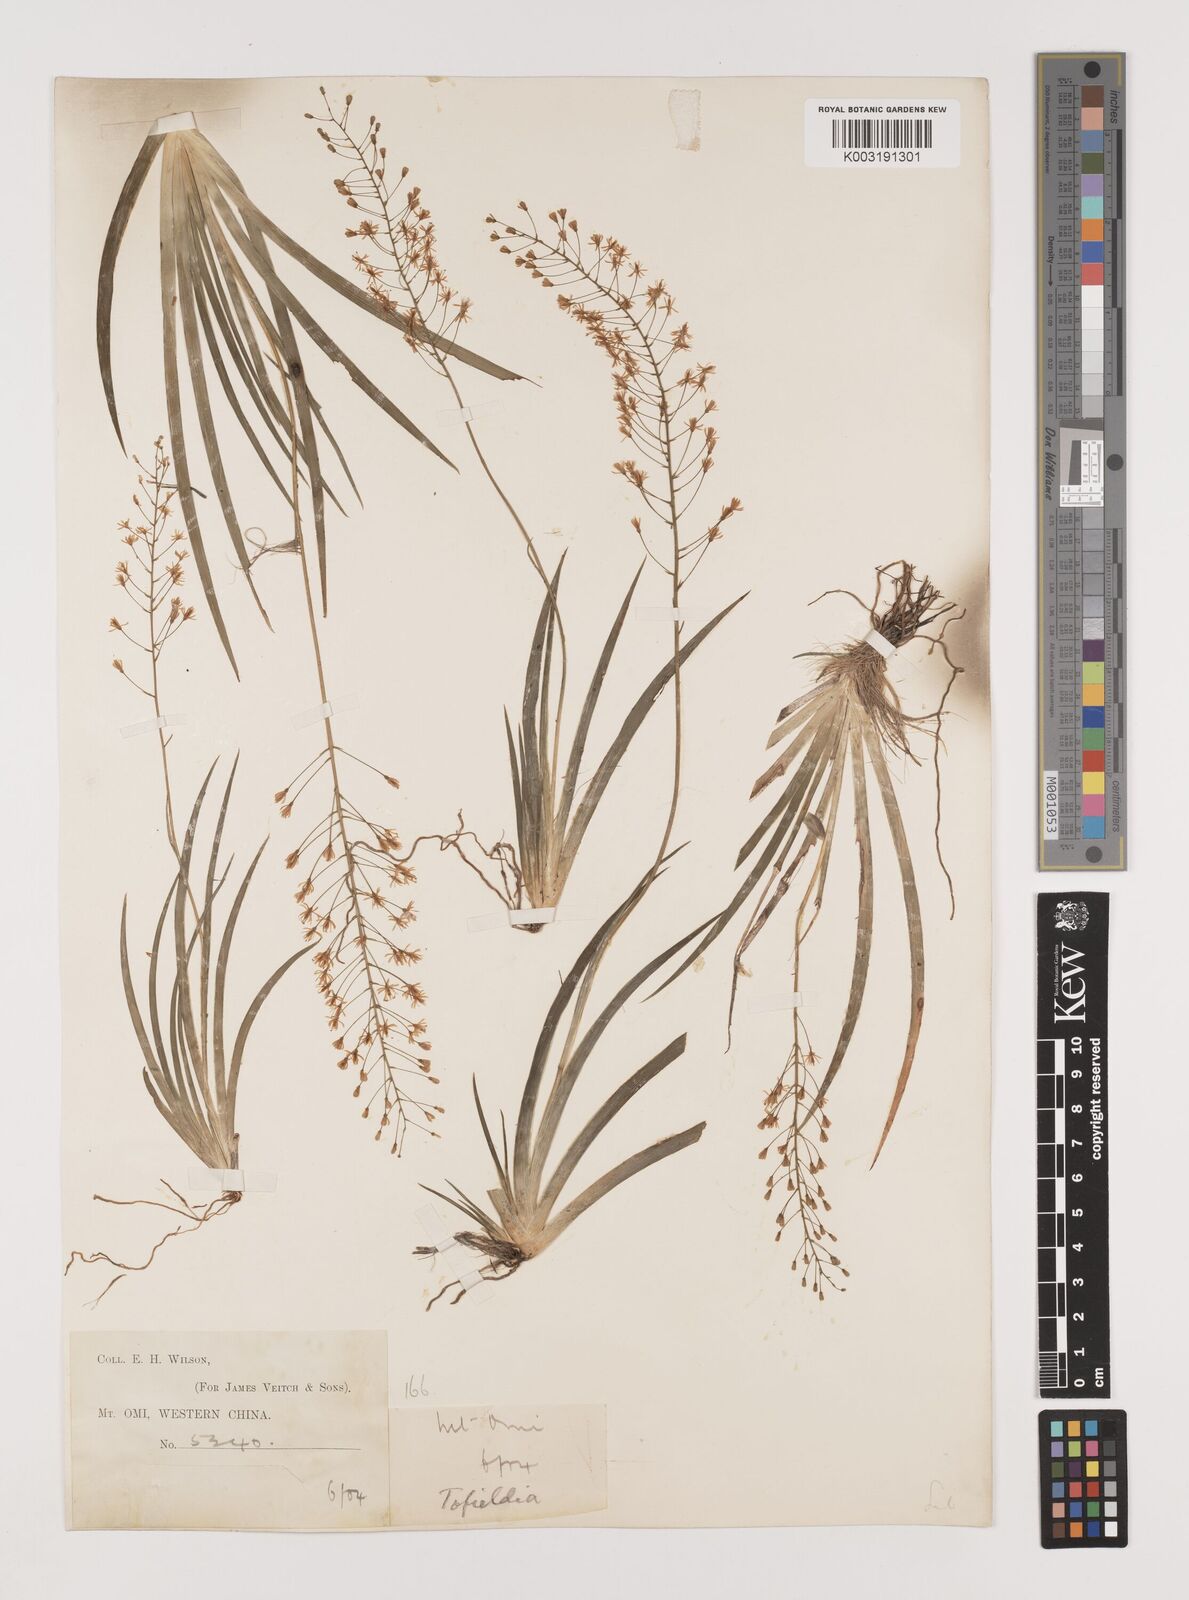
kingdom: Plantae
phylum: Tracheophyta
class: Liliopsida
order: Alismatales
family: Tofieldiaceae
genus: Tofieldia
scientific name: Tofieldia thibetica
